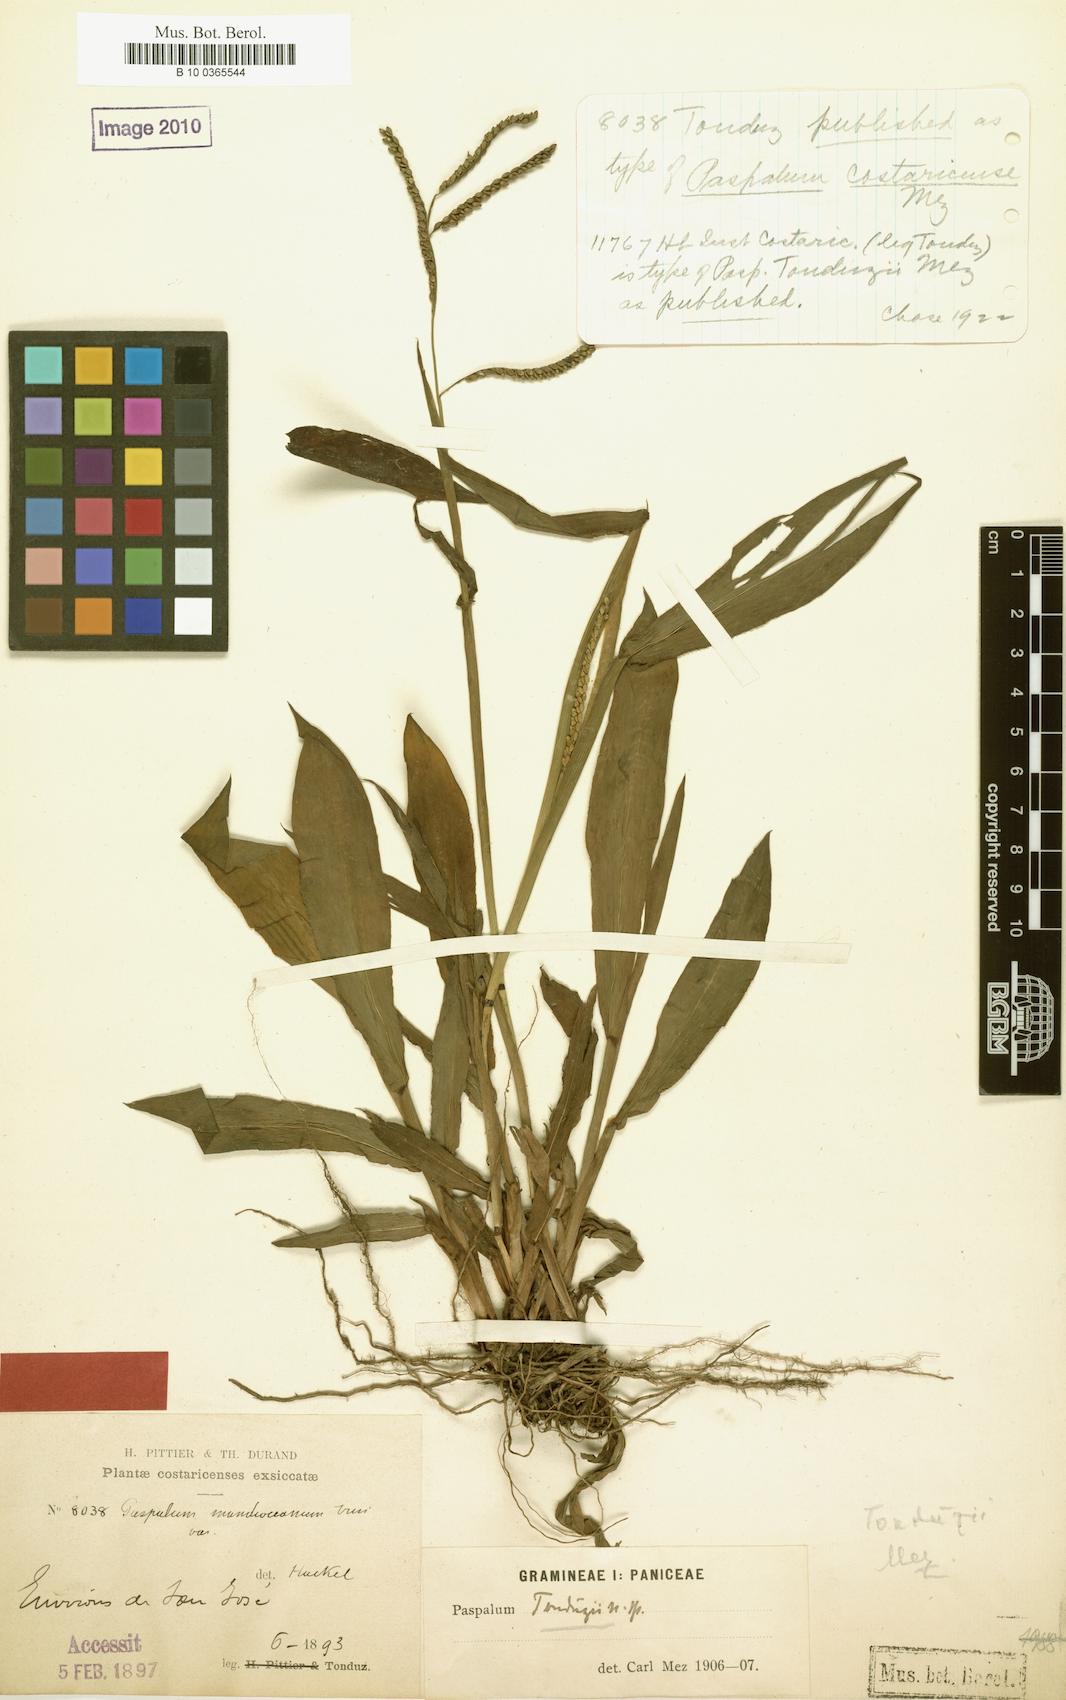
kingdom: Plantae
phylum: Tracheophyta
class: Liliopsida
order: Poales
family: Poaceae
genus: Paspalum
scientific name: Paspalum costaricense
